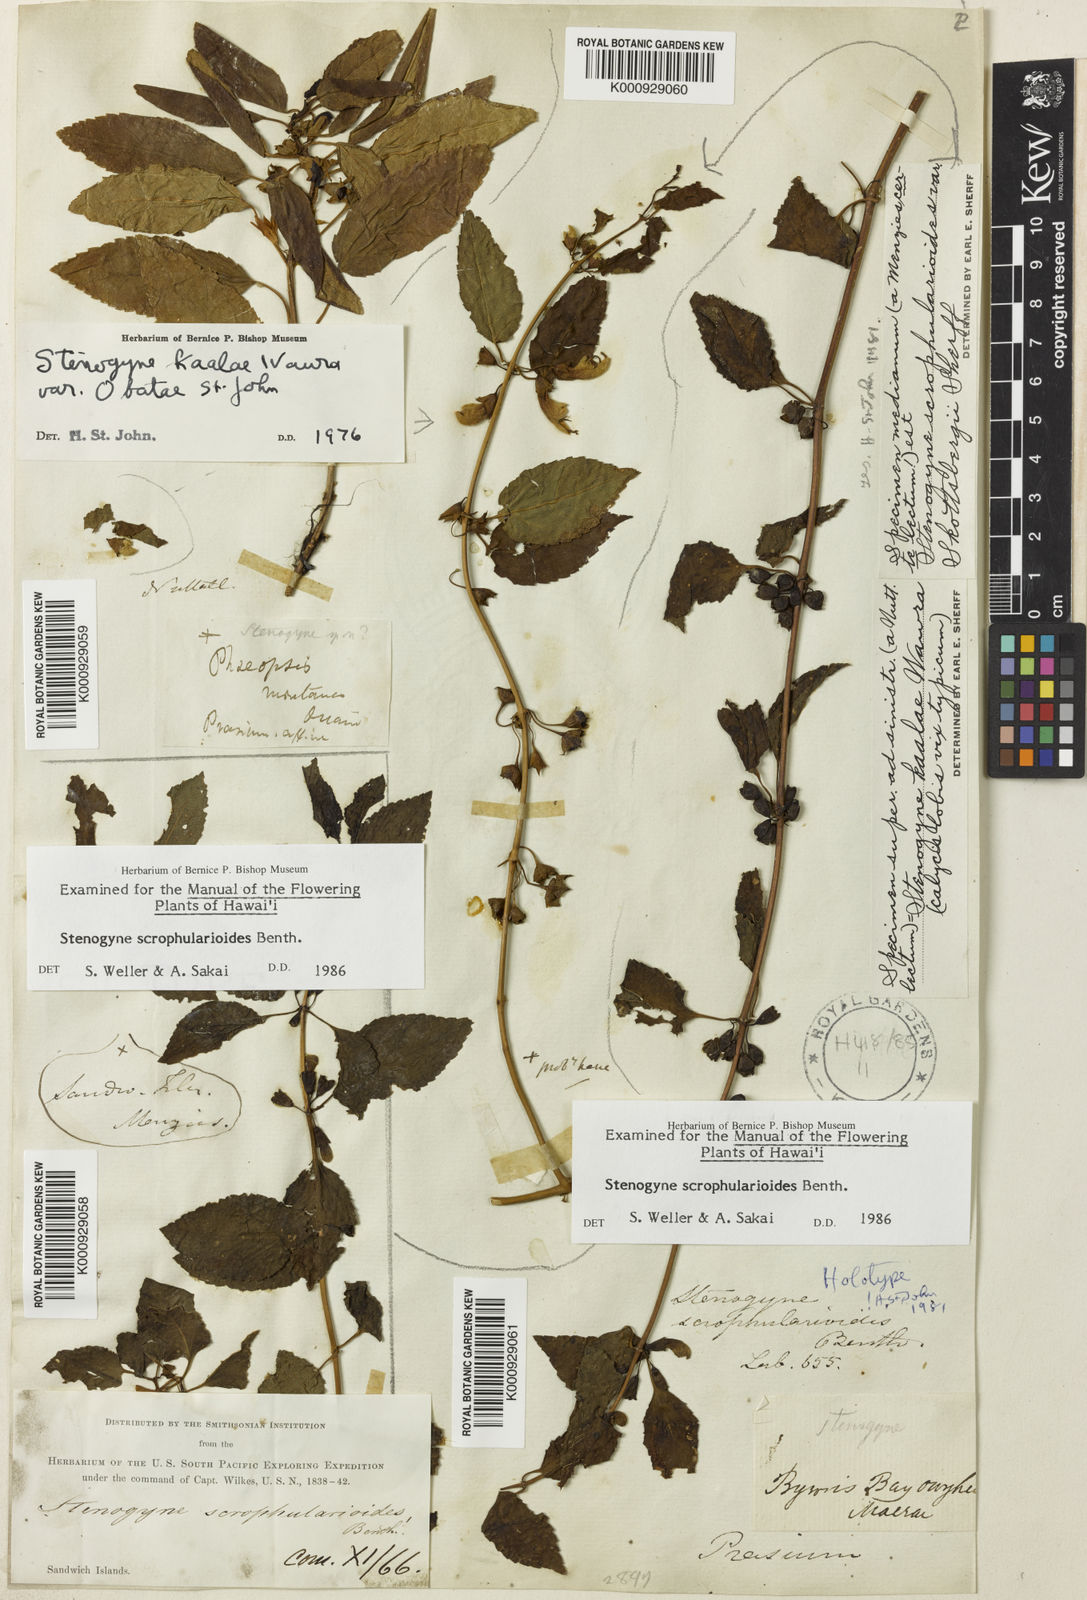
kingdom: Plantae
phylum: Tracheophyta
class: Magnoliopsida
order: Lamiales
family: Lamiaceae
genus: Stenogyne
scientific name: Stenogyne scrophularioides
